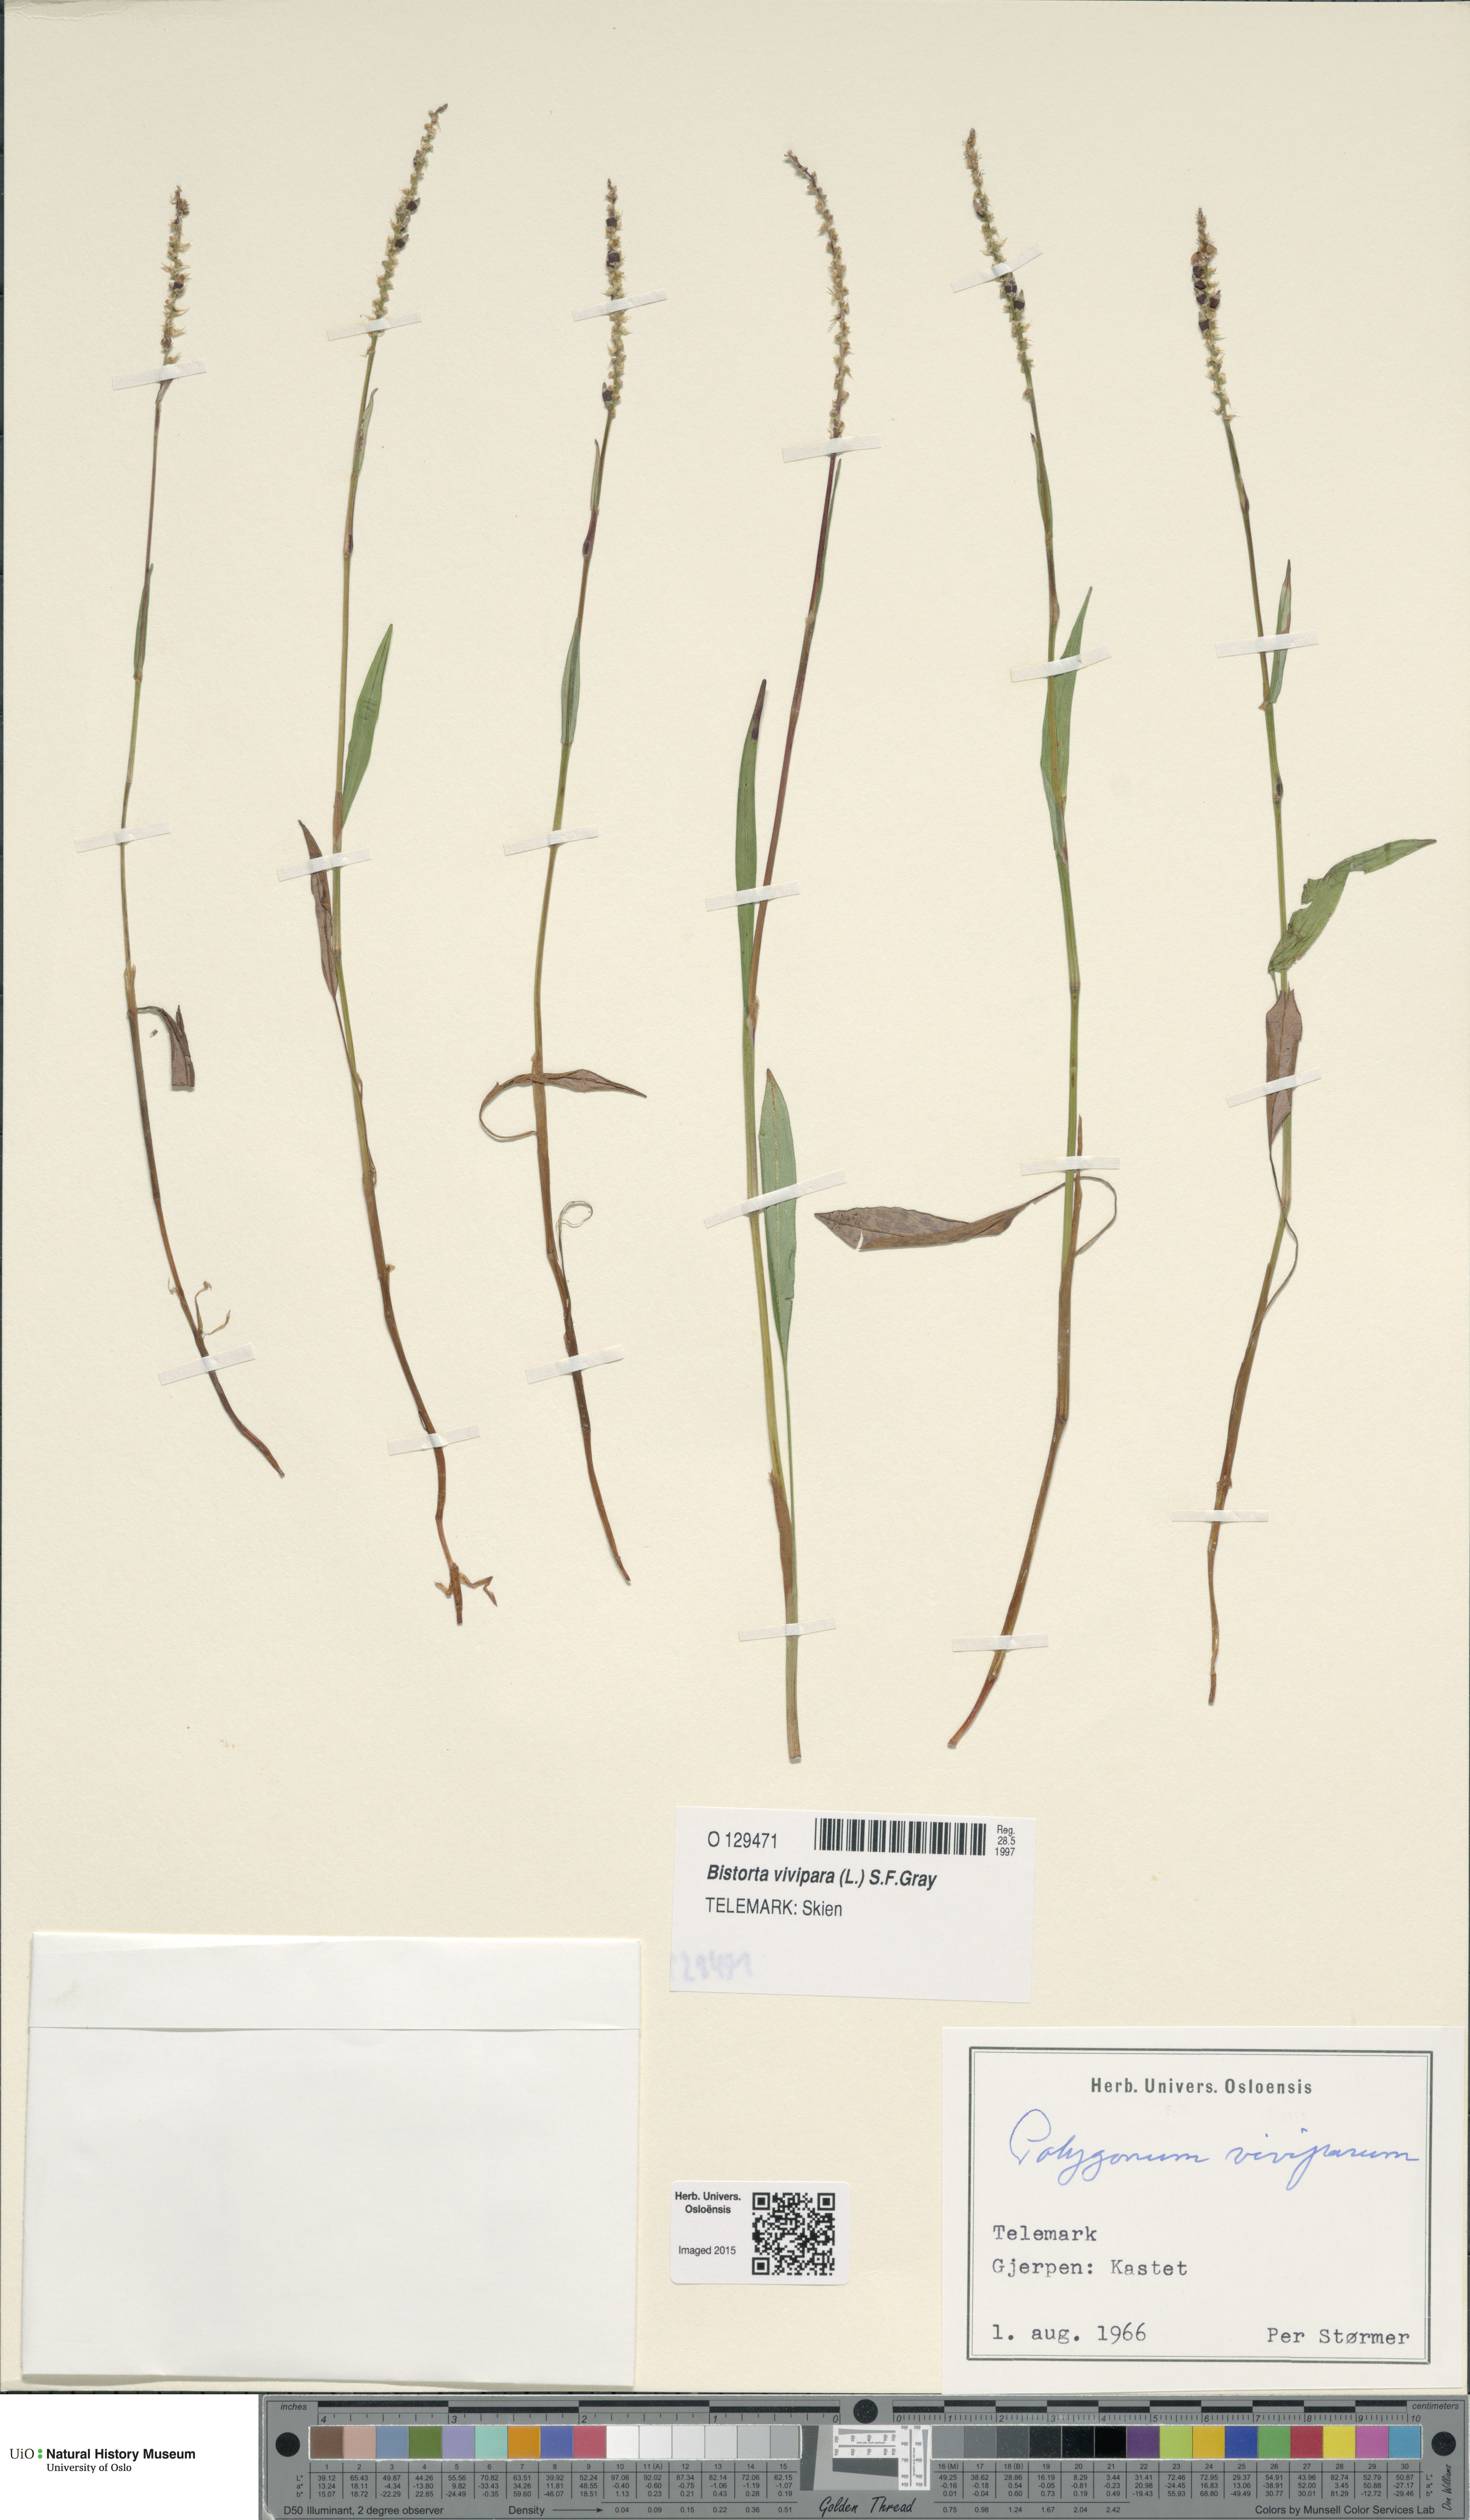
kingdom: Plantae
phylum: Tracheophyta
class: Magnoliopsida
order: Caryophyllales
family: Polygonaceae
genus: Bistorta
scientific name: Bistorta vivipara
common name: Alpine bistort
